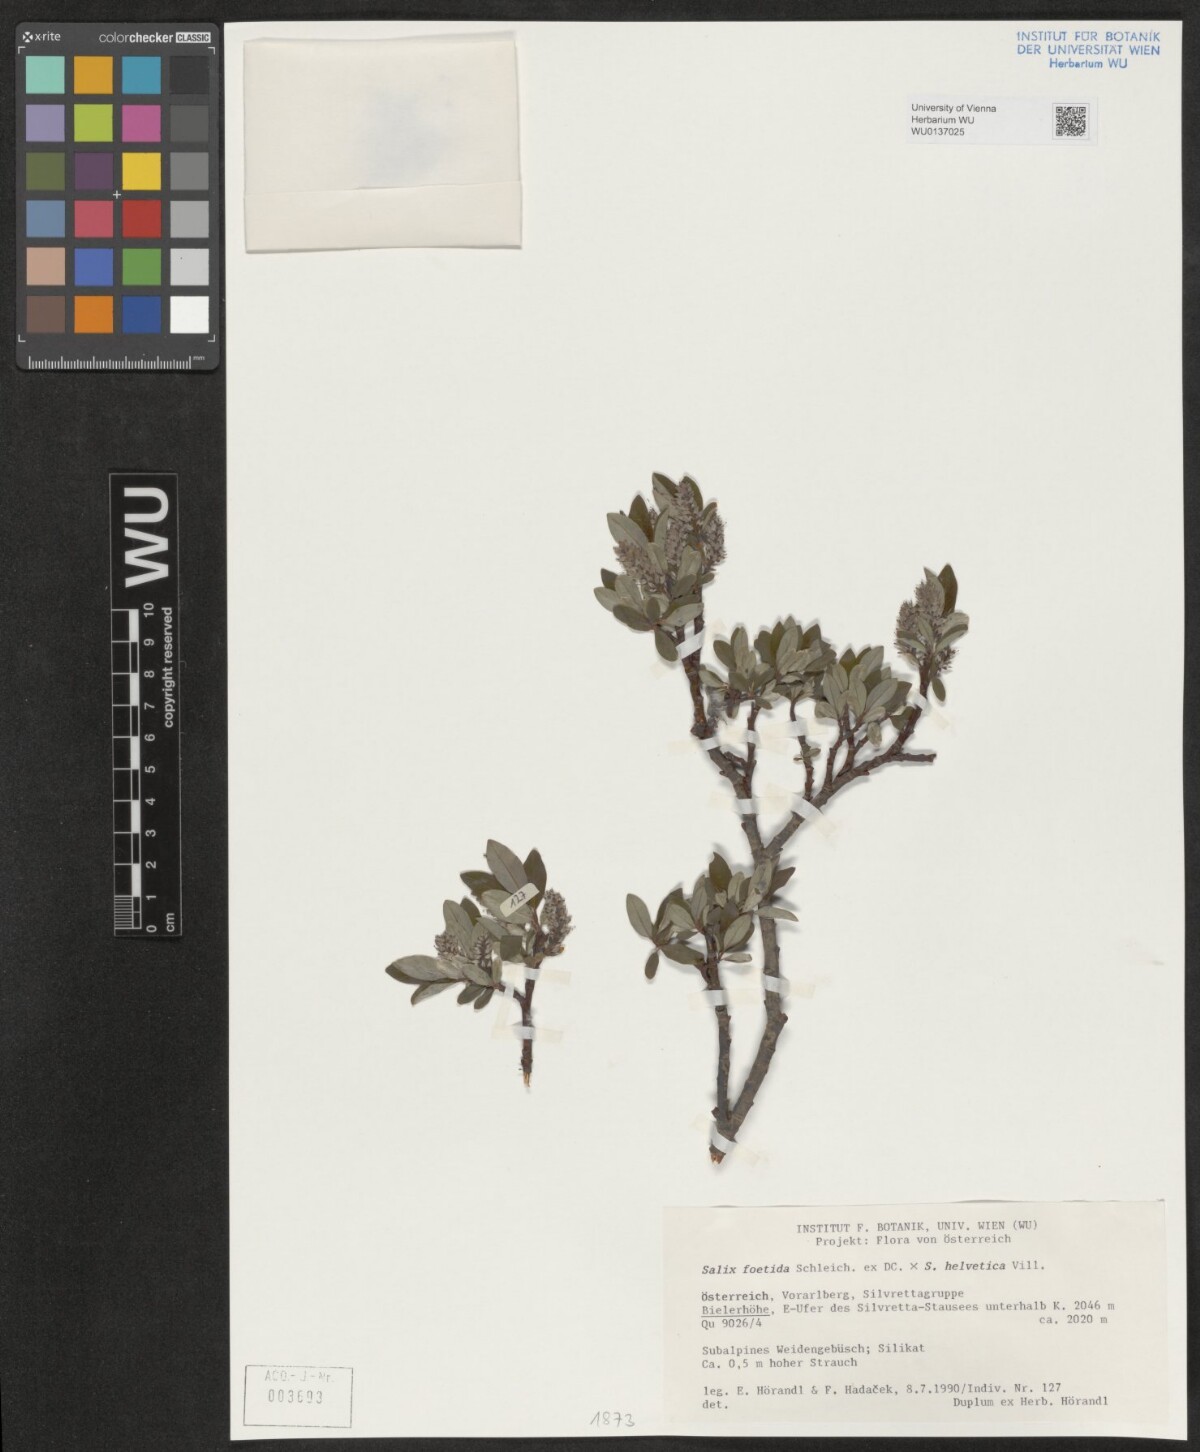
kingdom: Plantae
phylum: Tracheophyta
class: Magnoliopsida
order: Malpighiales
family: Salicaceae
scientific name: Salicaceae
